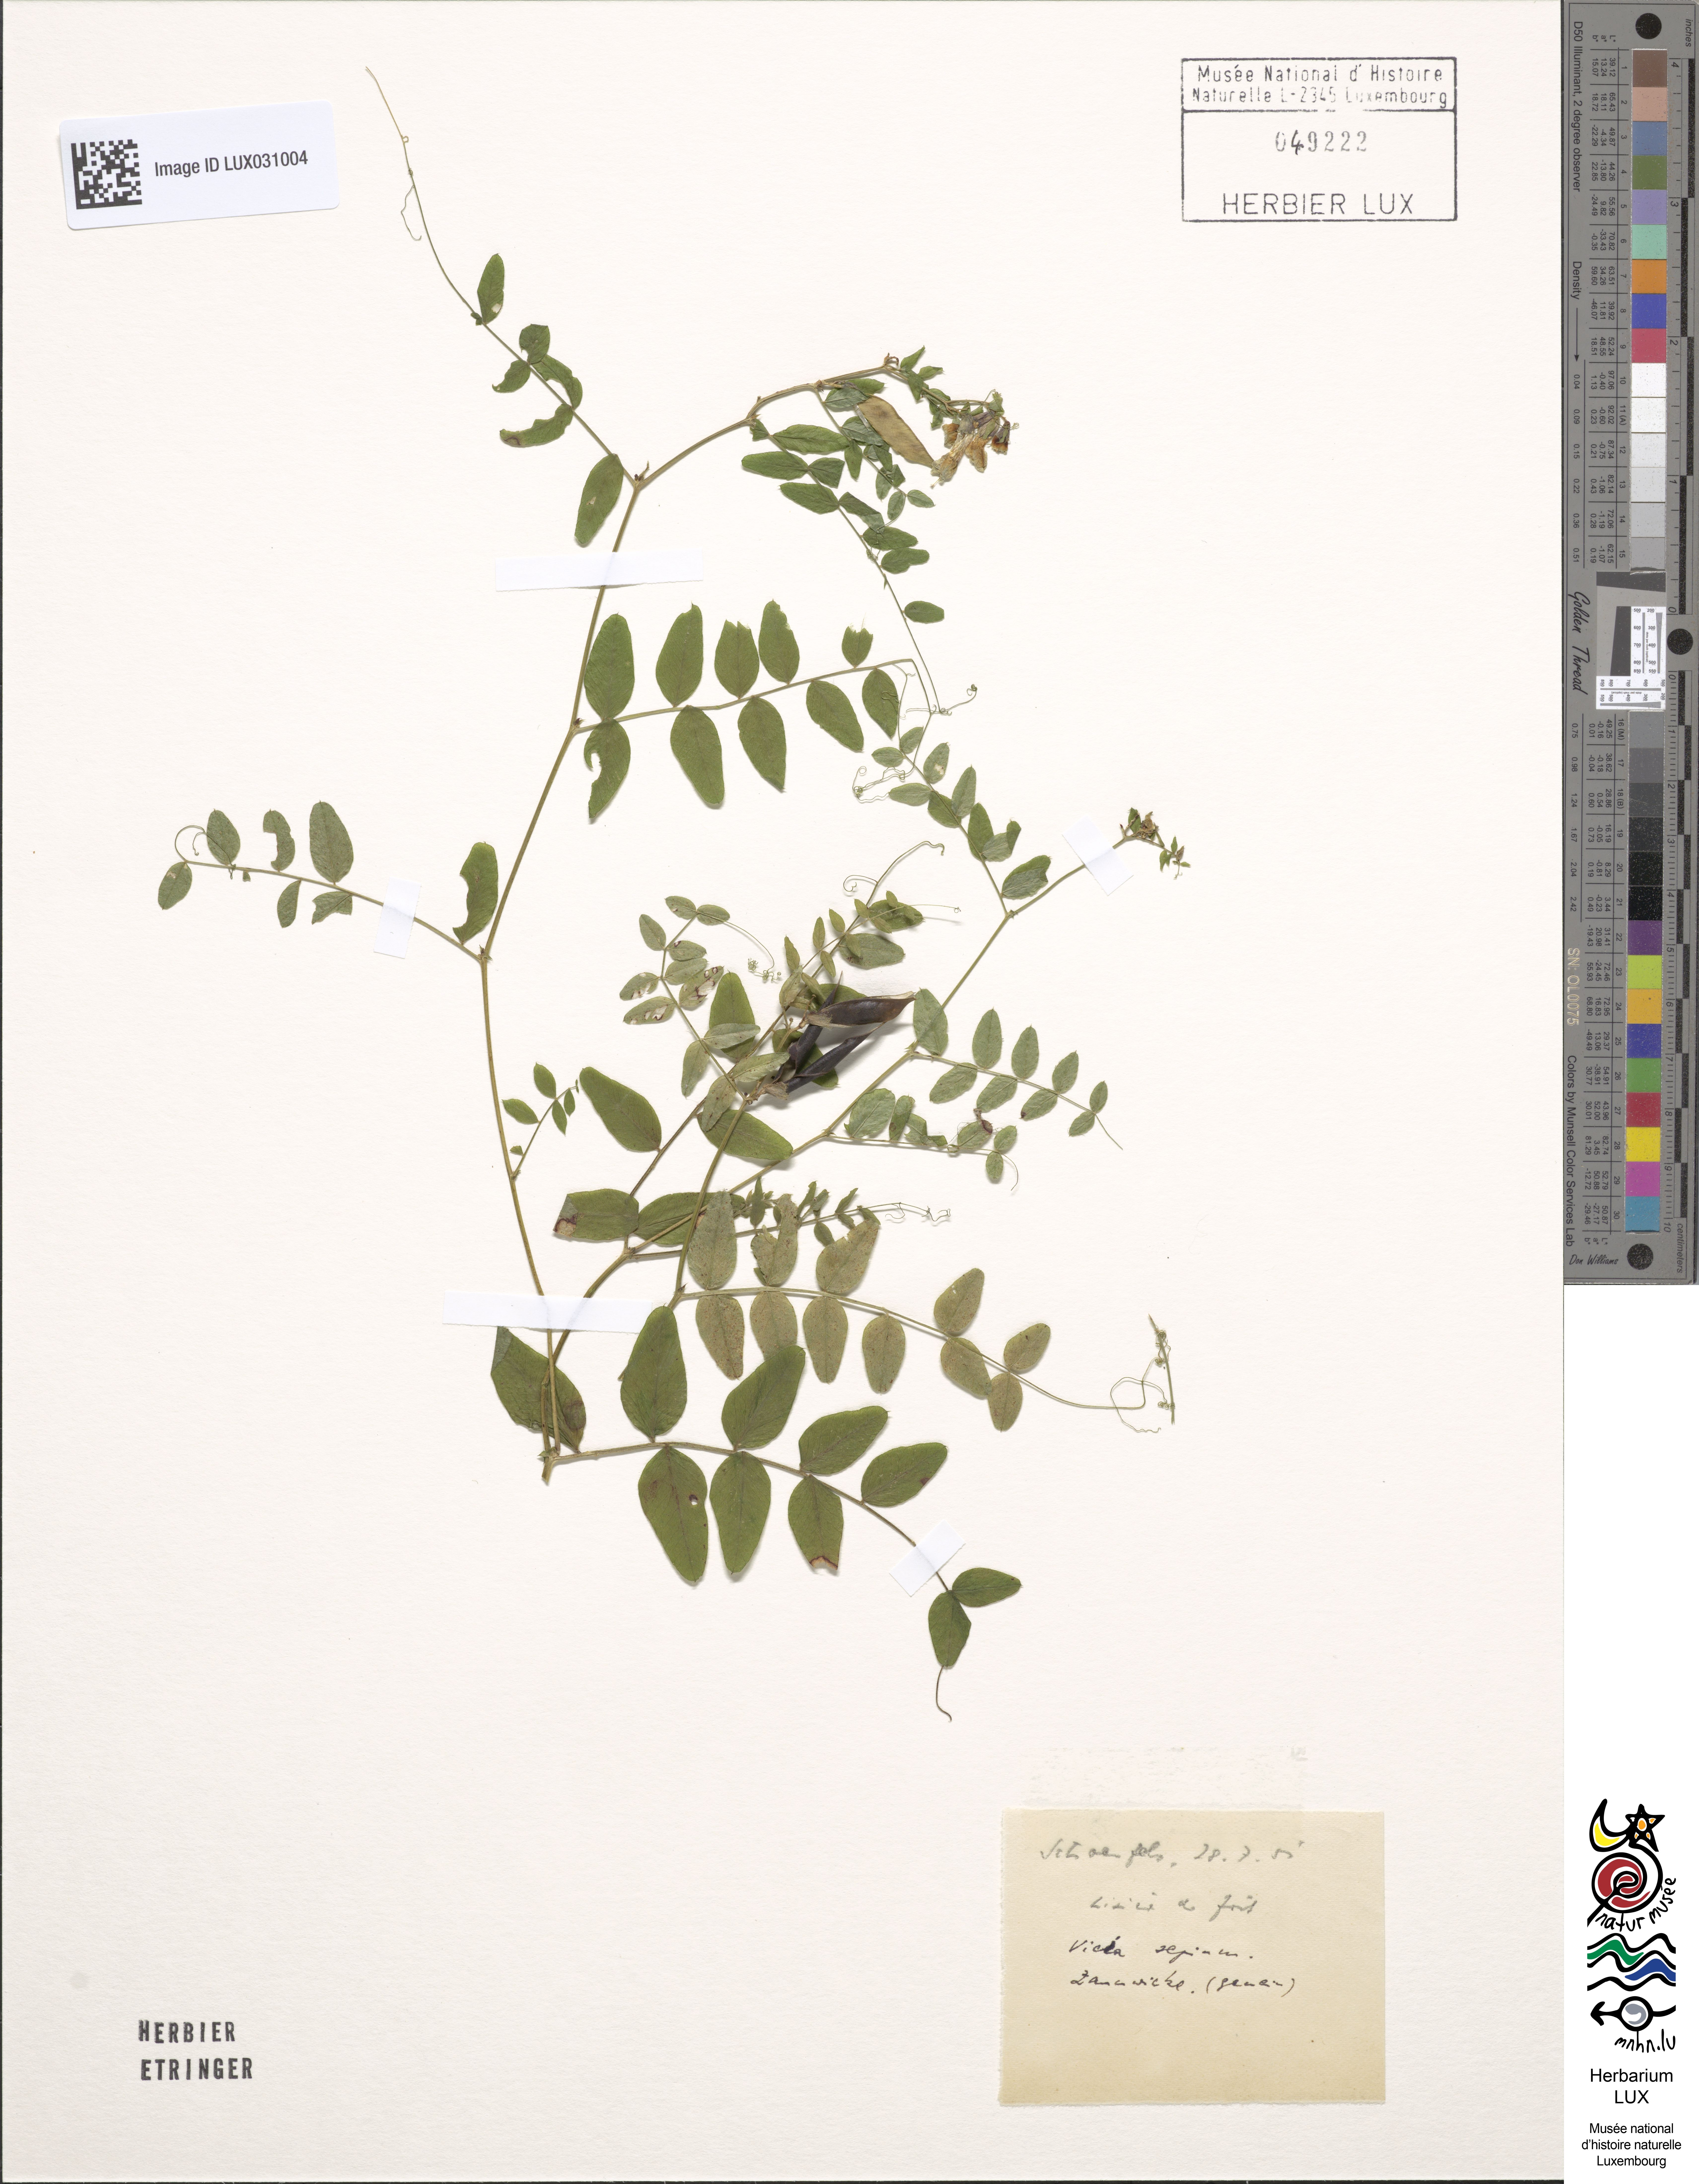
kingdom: Plantae
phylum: Tracheophyta
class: Magnoliopsida
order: Fabales
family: Fabaceae
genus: Vicia
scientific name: Vicia sepium
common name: Bush vetch
